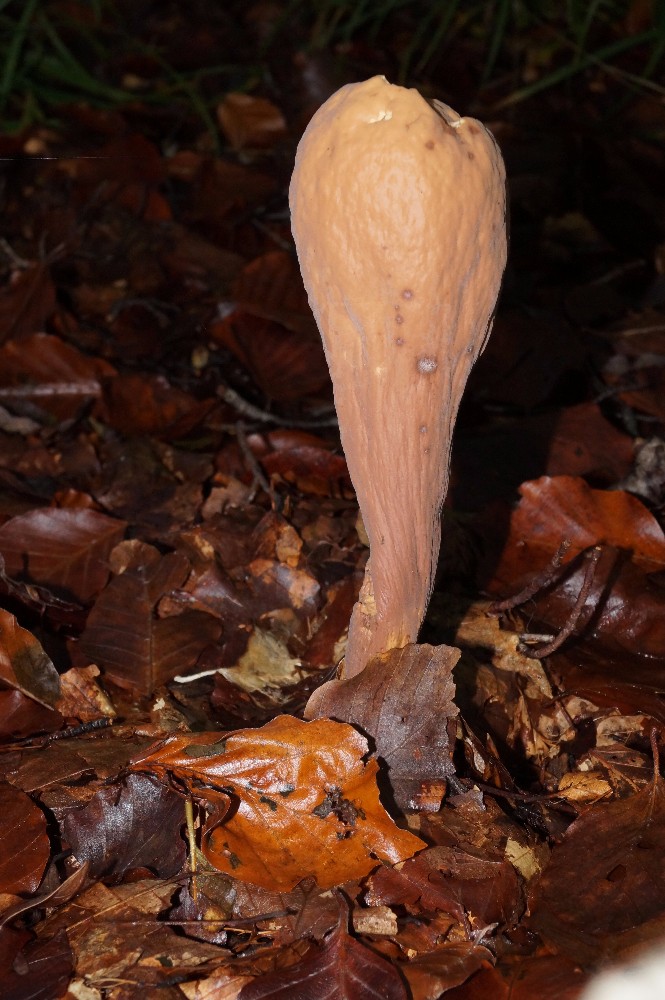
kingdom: Fungi
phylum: Basidiomycota
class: Agaricomycetes
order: Gomphales
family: Clavariadelphaceae
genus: Clavariadelphus
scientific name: Clavariadelphus pistillaris
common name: herkules-kæmpekølle
